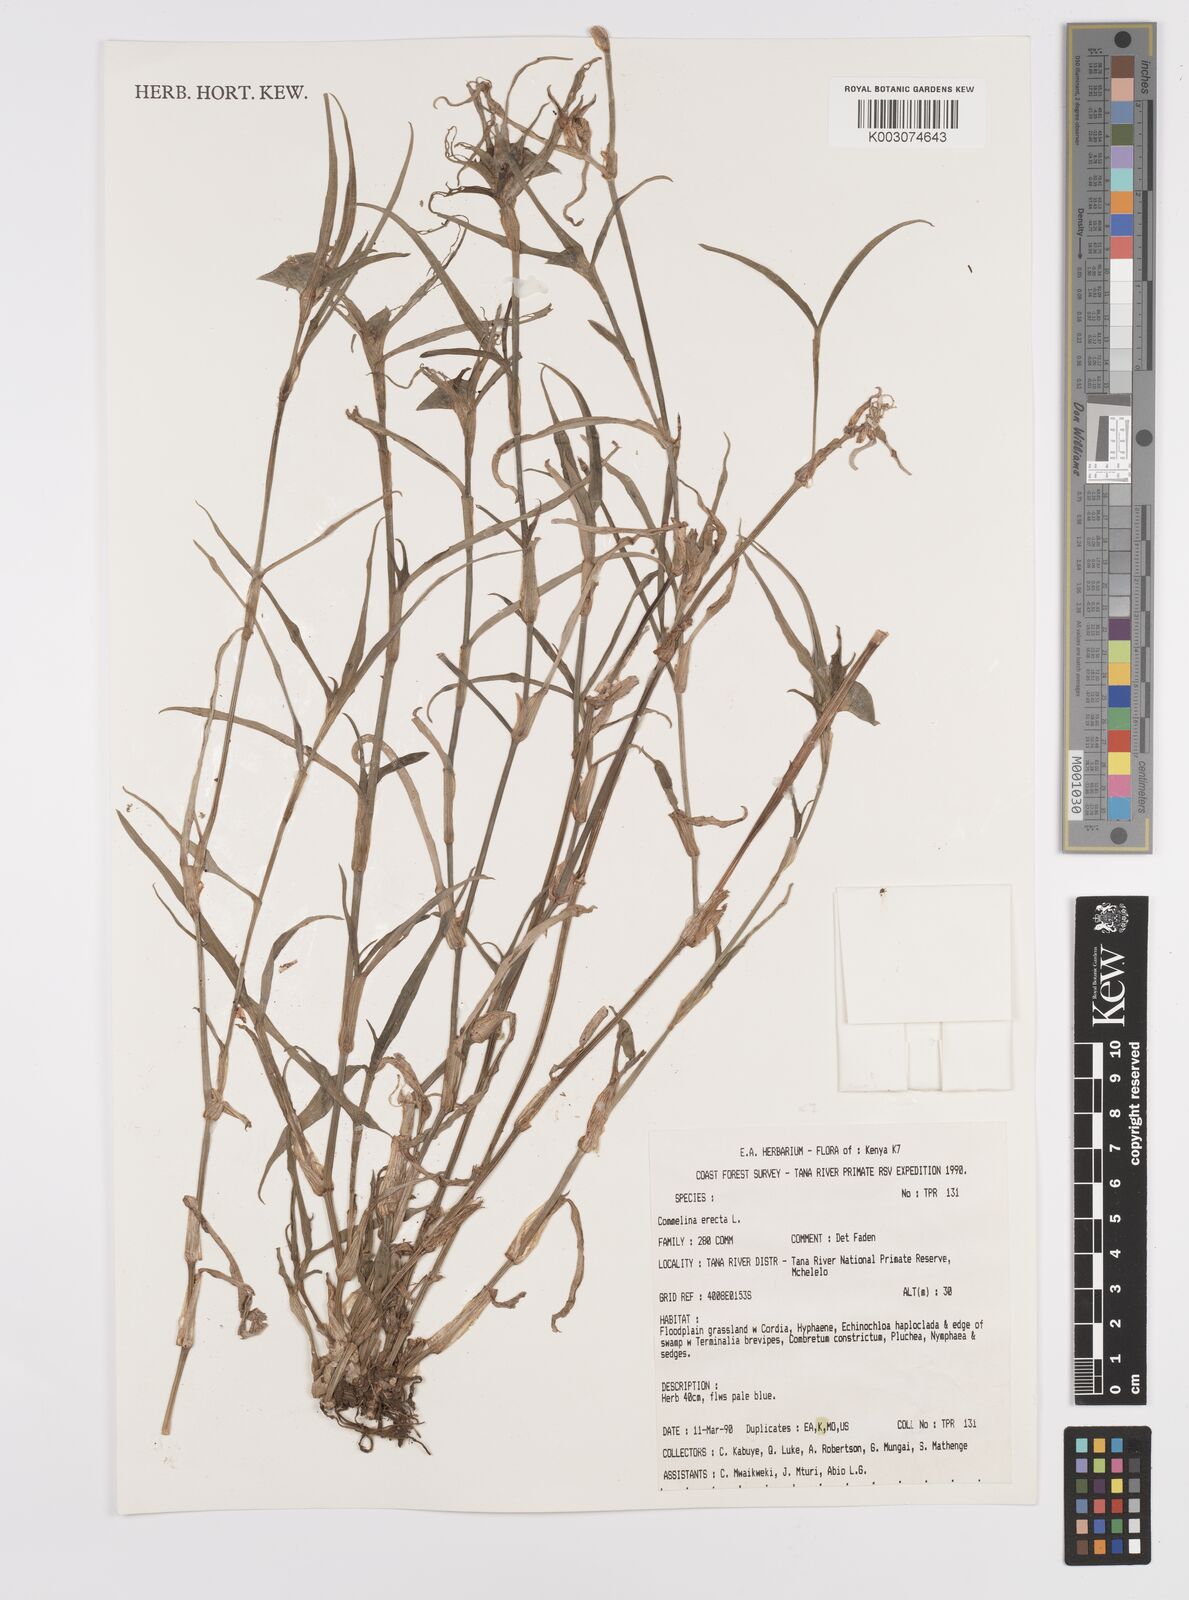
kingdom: Plantae
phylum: Tracheophyta
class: Liliopsida
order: Commelinales
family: Commelinaceae
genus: Commelina
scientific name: Commelina erecta
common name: Blousel blommetjie
